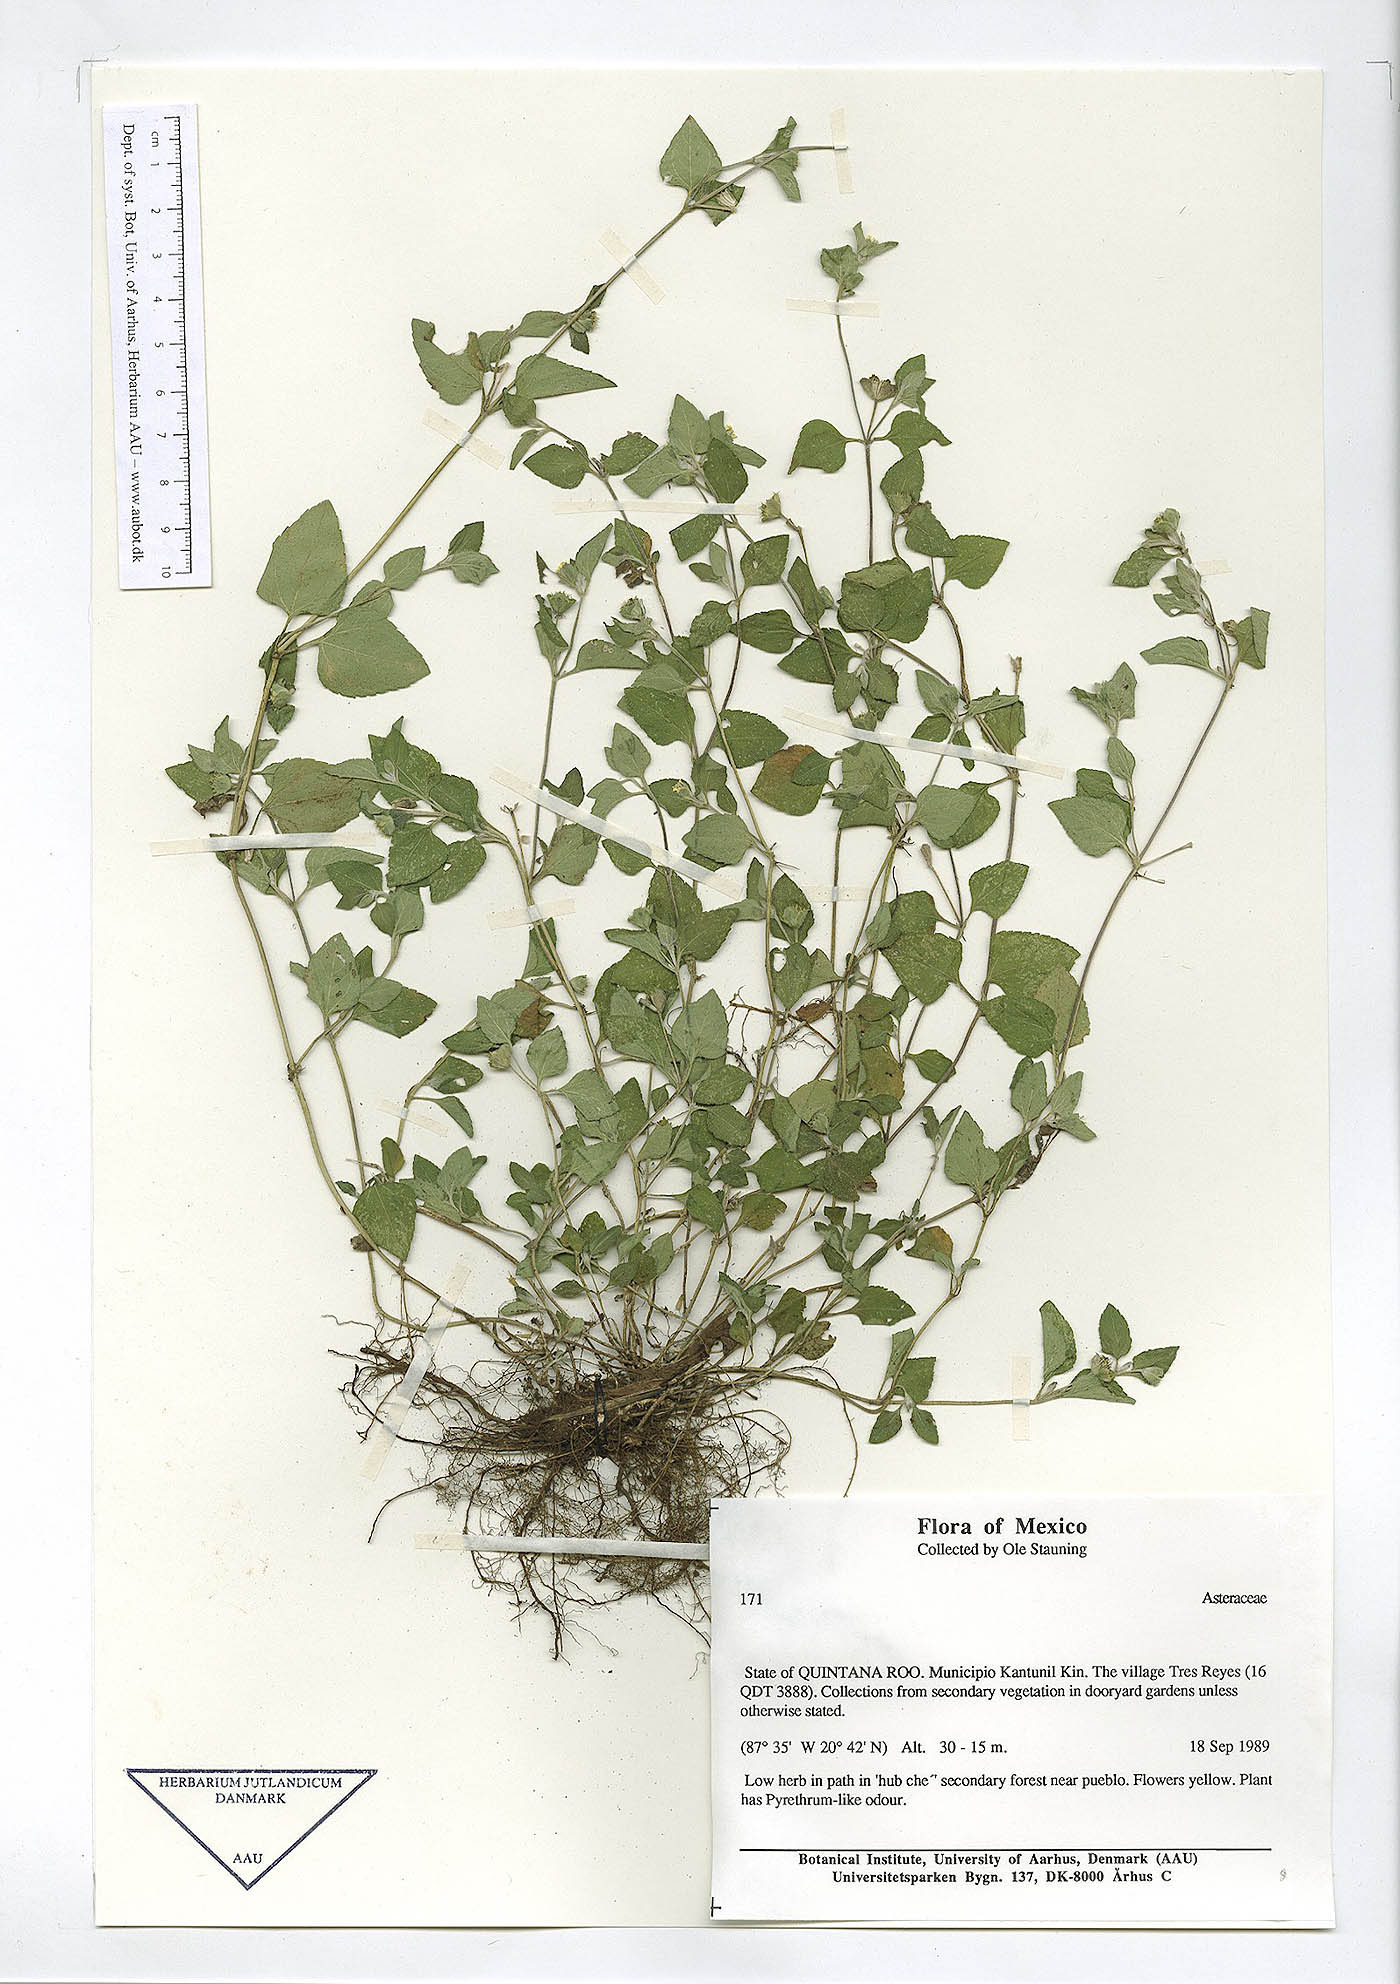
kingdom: Plantae
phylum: Tracheophyta
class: Magnoliopsida
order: Asterales
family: Asteraceae
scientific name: Asteraceae
